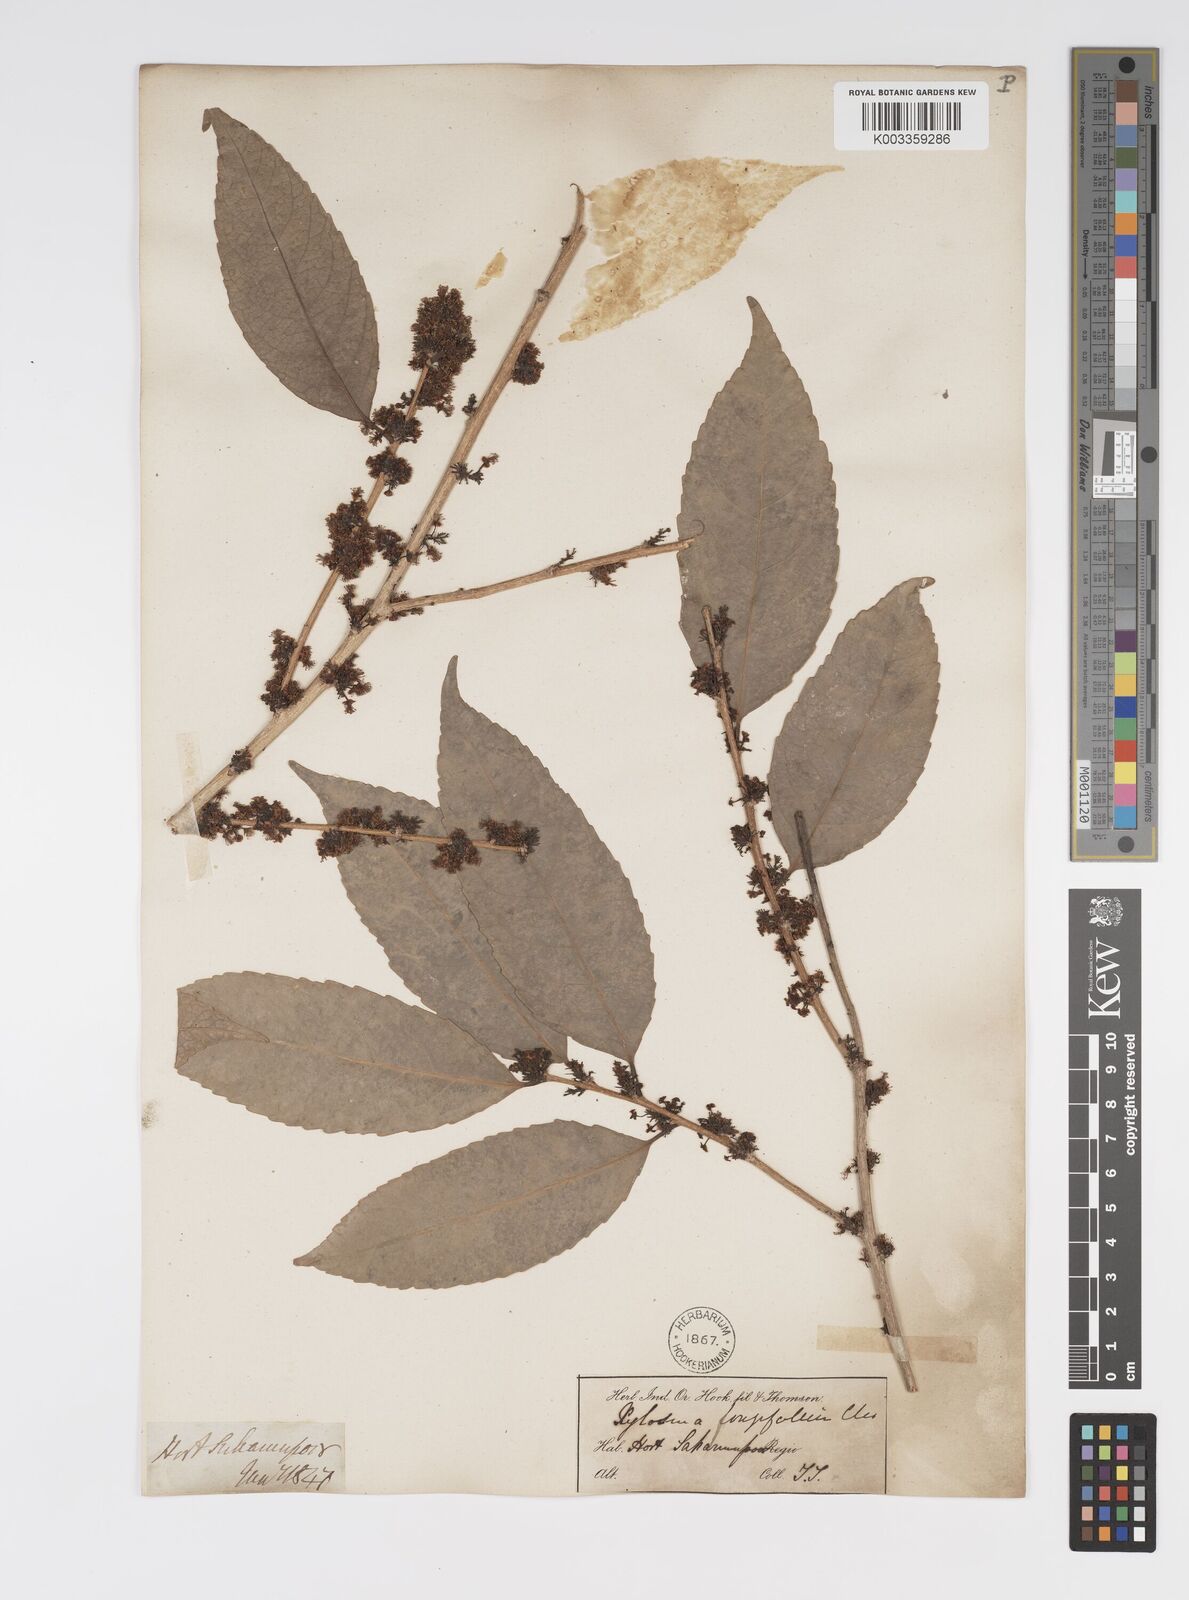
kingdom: Plantae
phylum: Tracheophyta
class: Magnoliopsida
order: Malpighiales
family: Salicaceae
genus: Xylosma
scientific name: Xylosma longifolia
